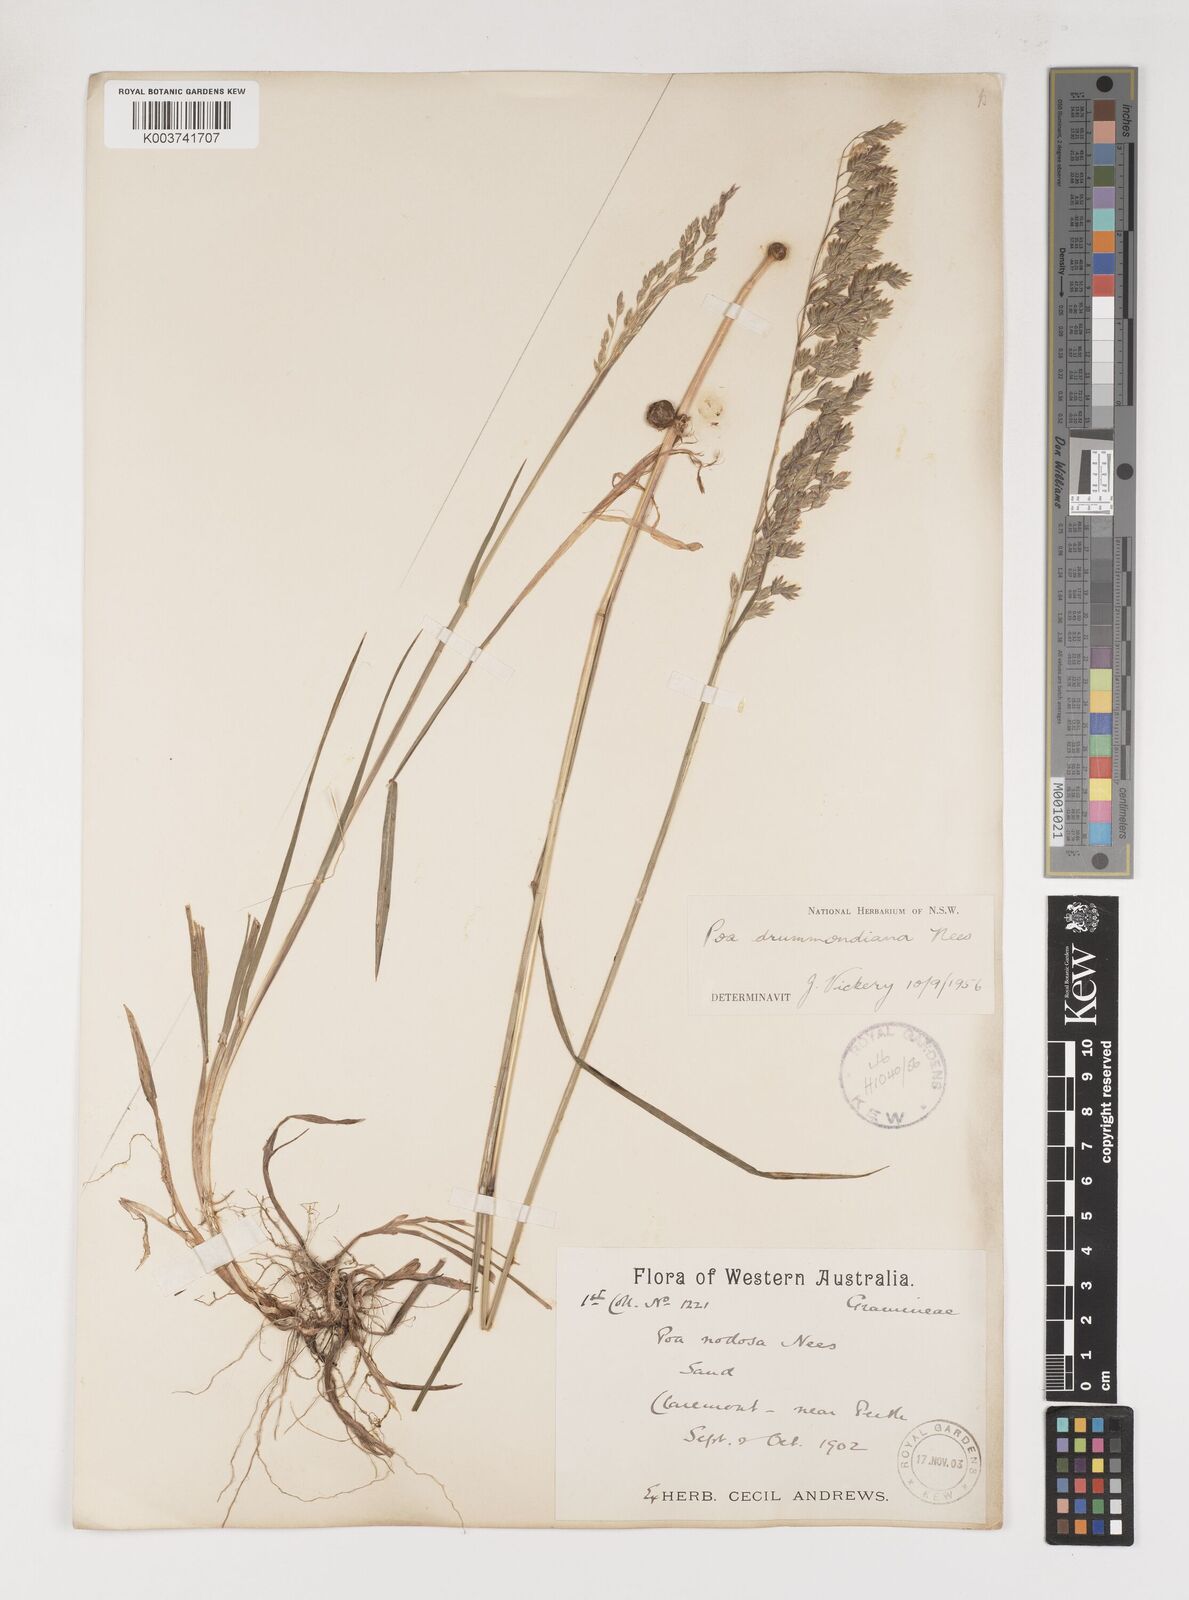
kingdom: Plantae
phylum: Tracheophyta
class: Liliopsida
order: Poales
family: Poaceae
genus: Poa
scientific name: Poa drummondiana
